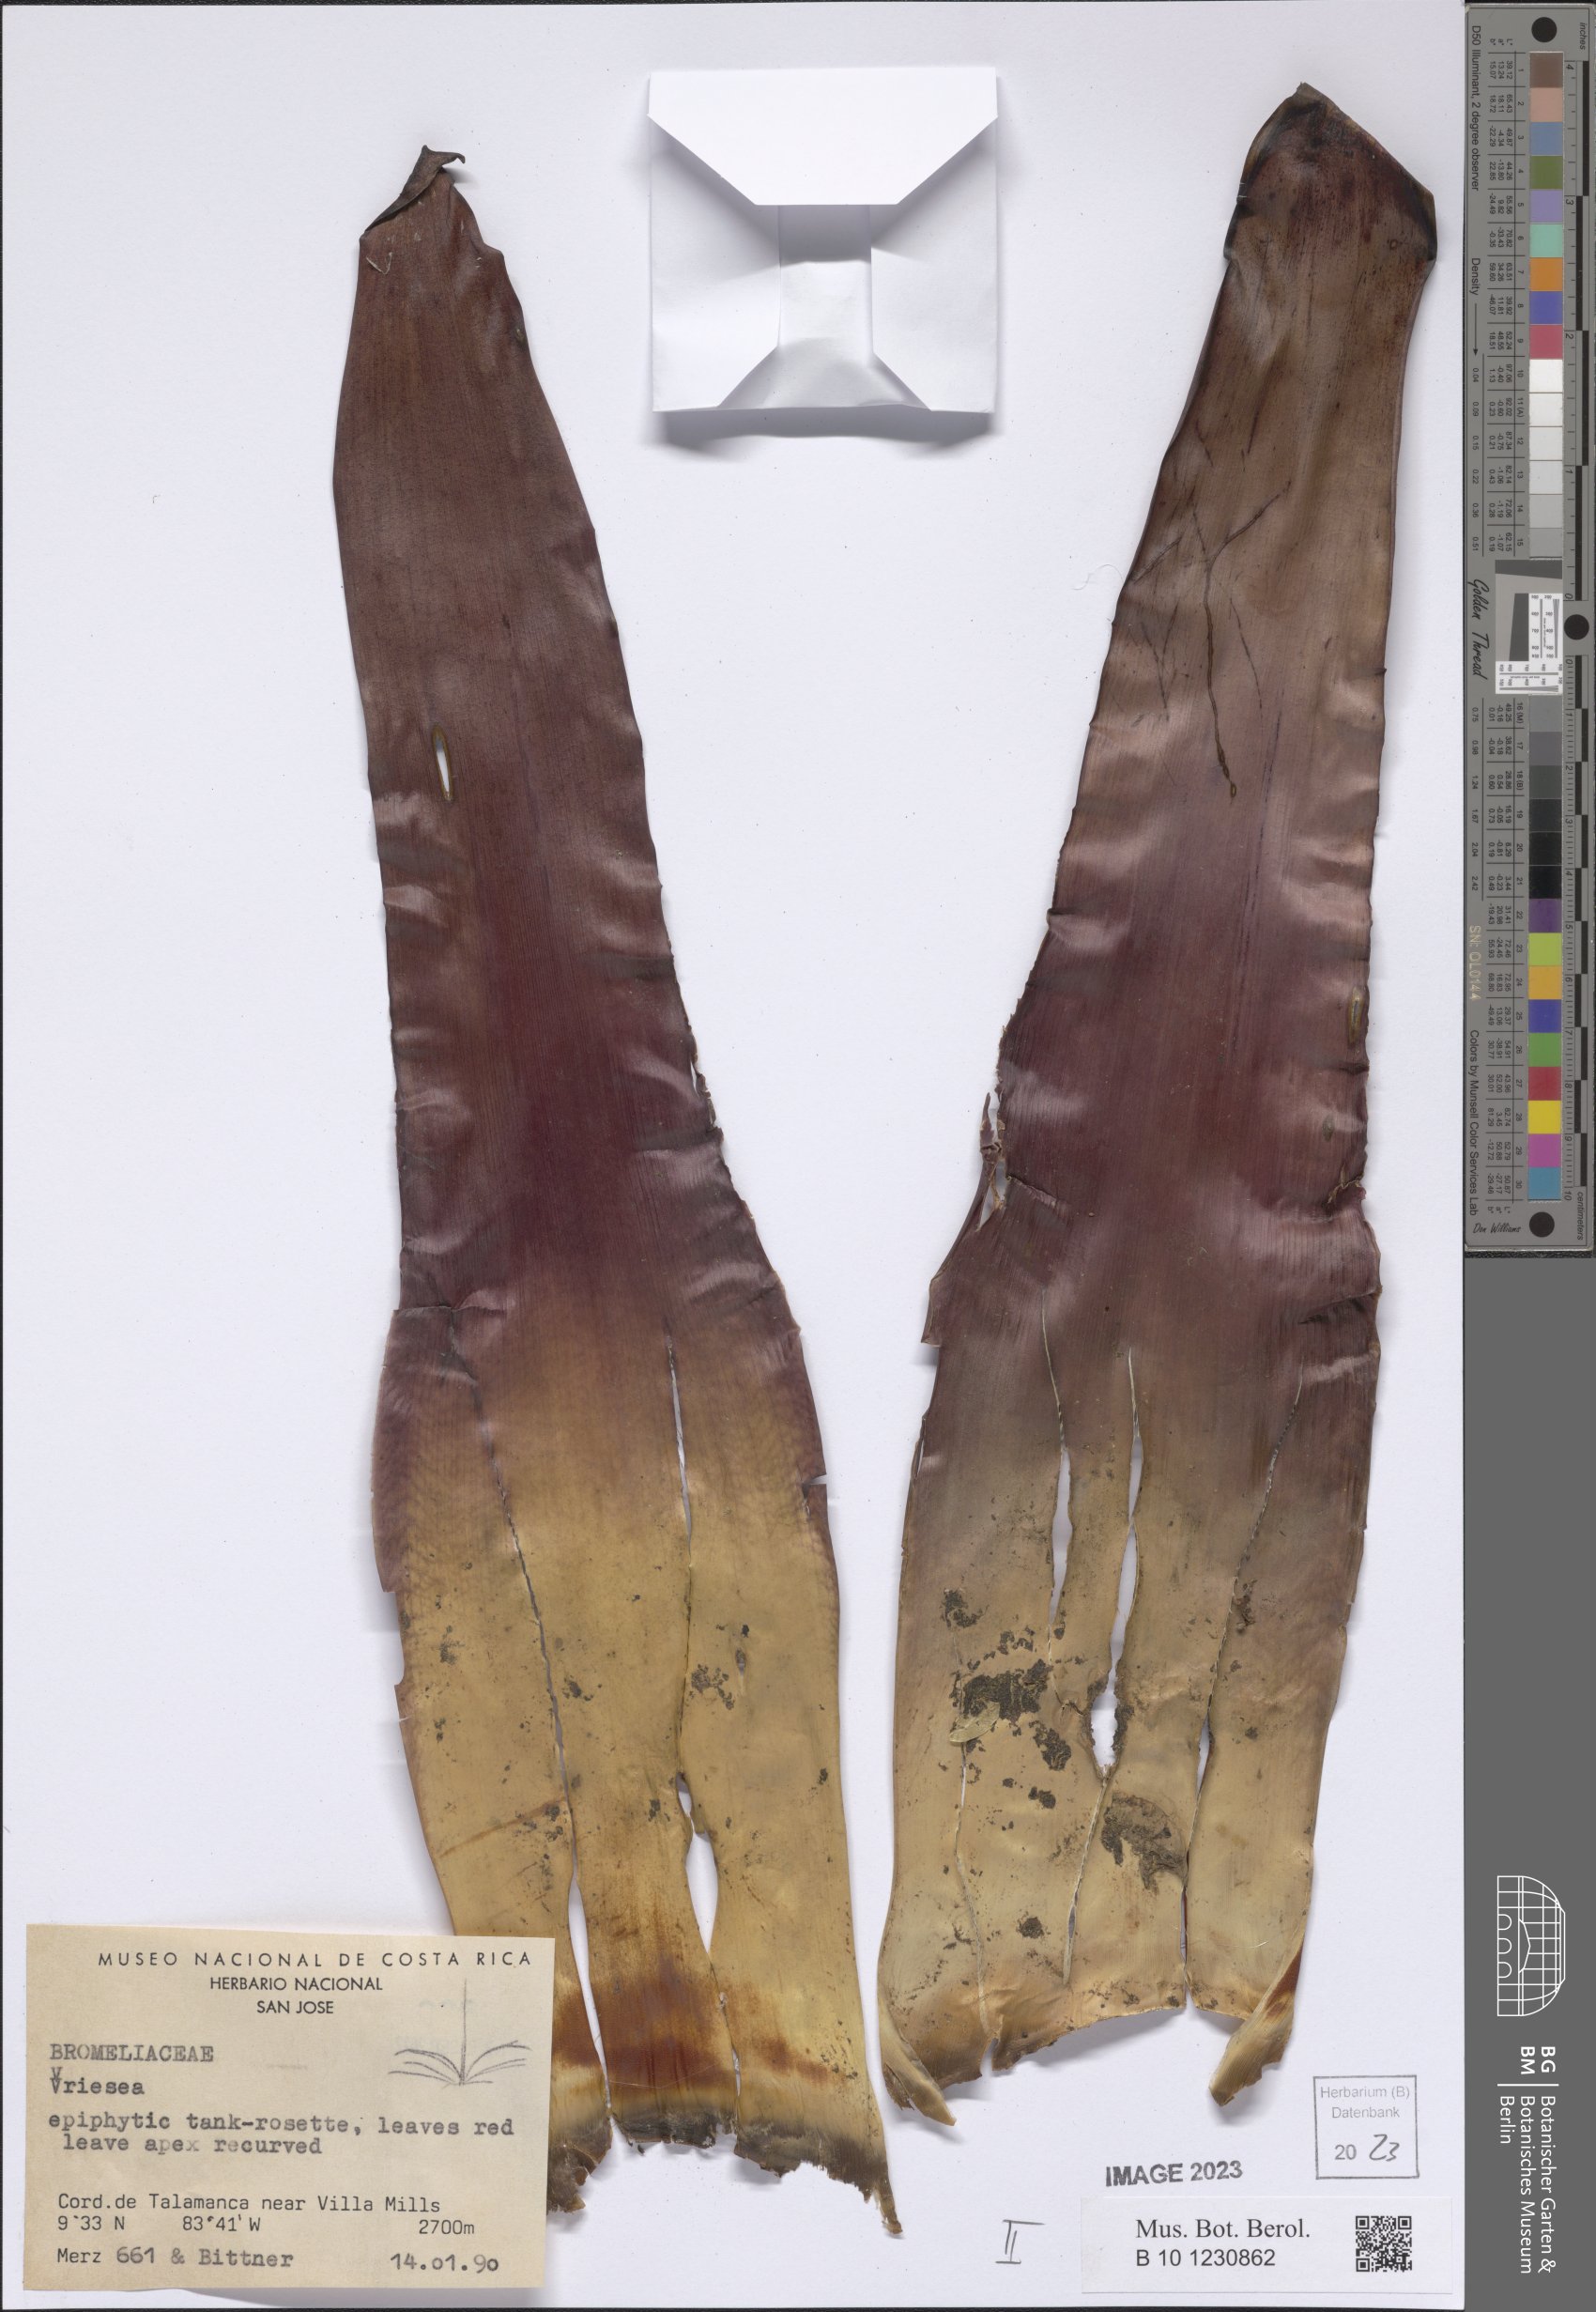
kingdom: Plantae
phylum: Tracheophyta
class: Liliopsida
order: Poales
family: Bromeliaceae
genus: Vriesea
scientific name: Vriesea
